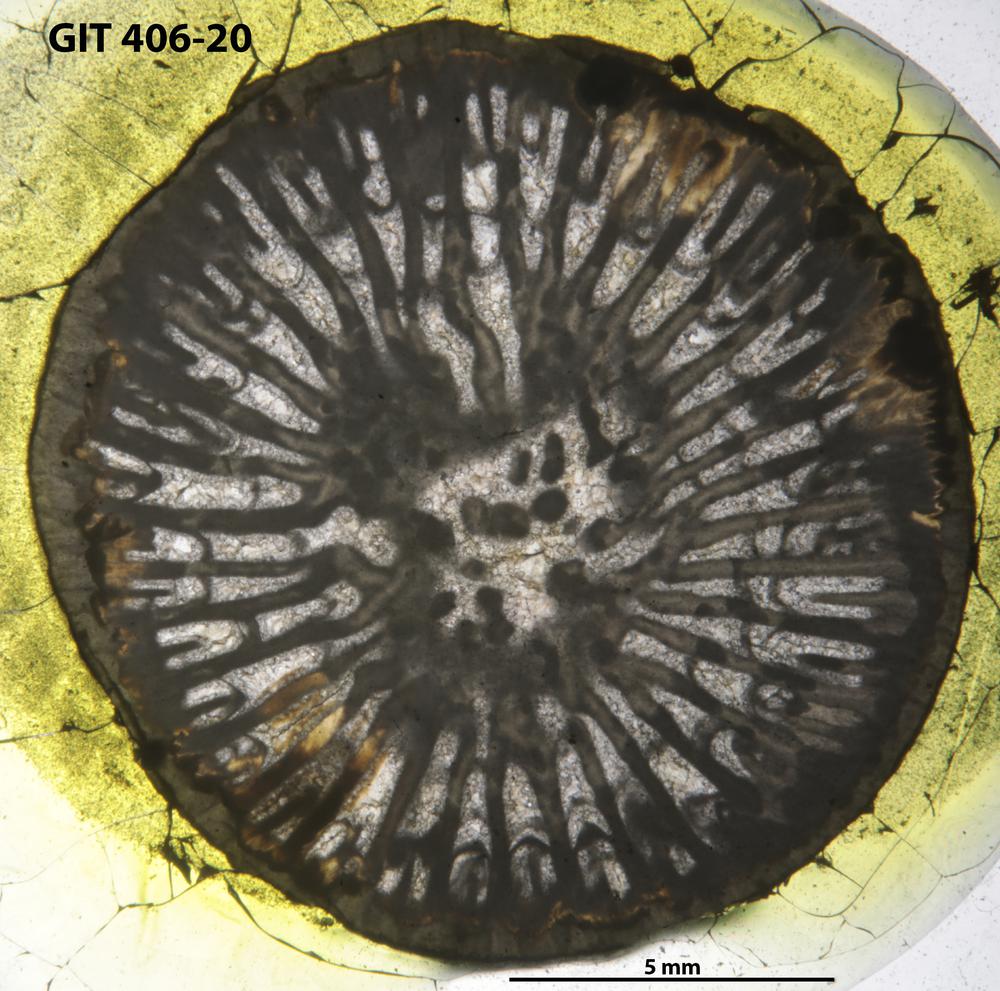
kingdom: Animalia
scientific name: Animalia
